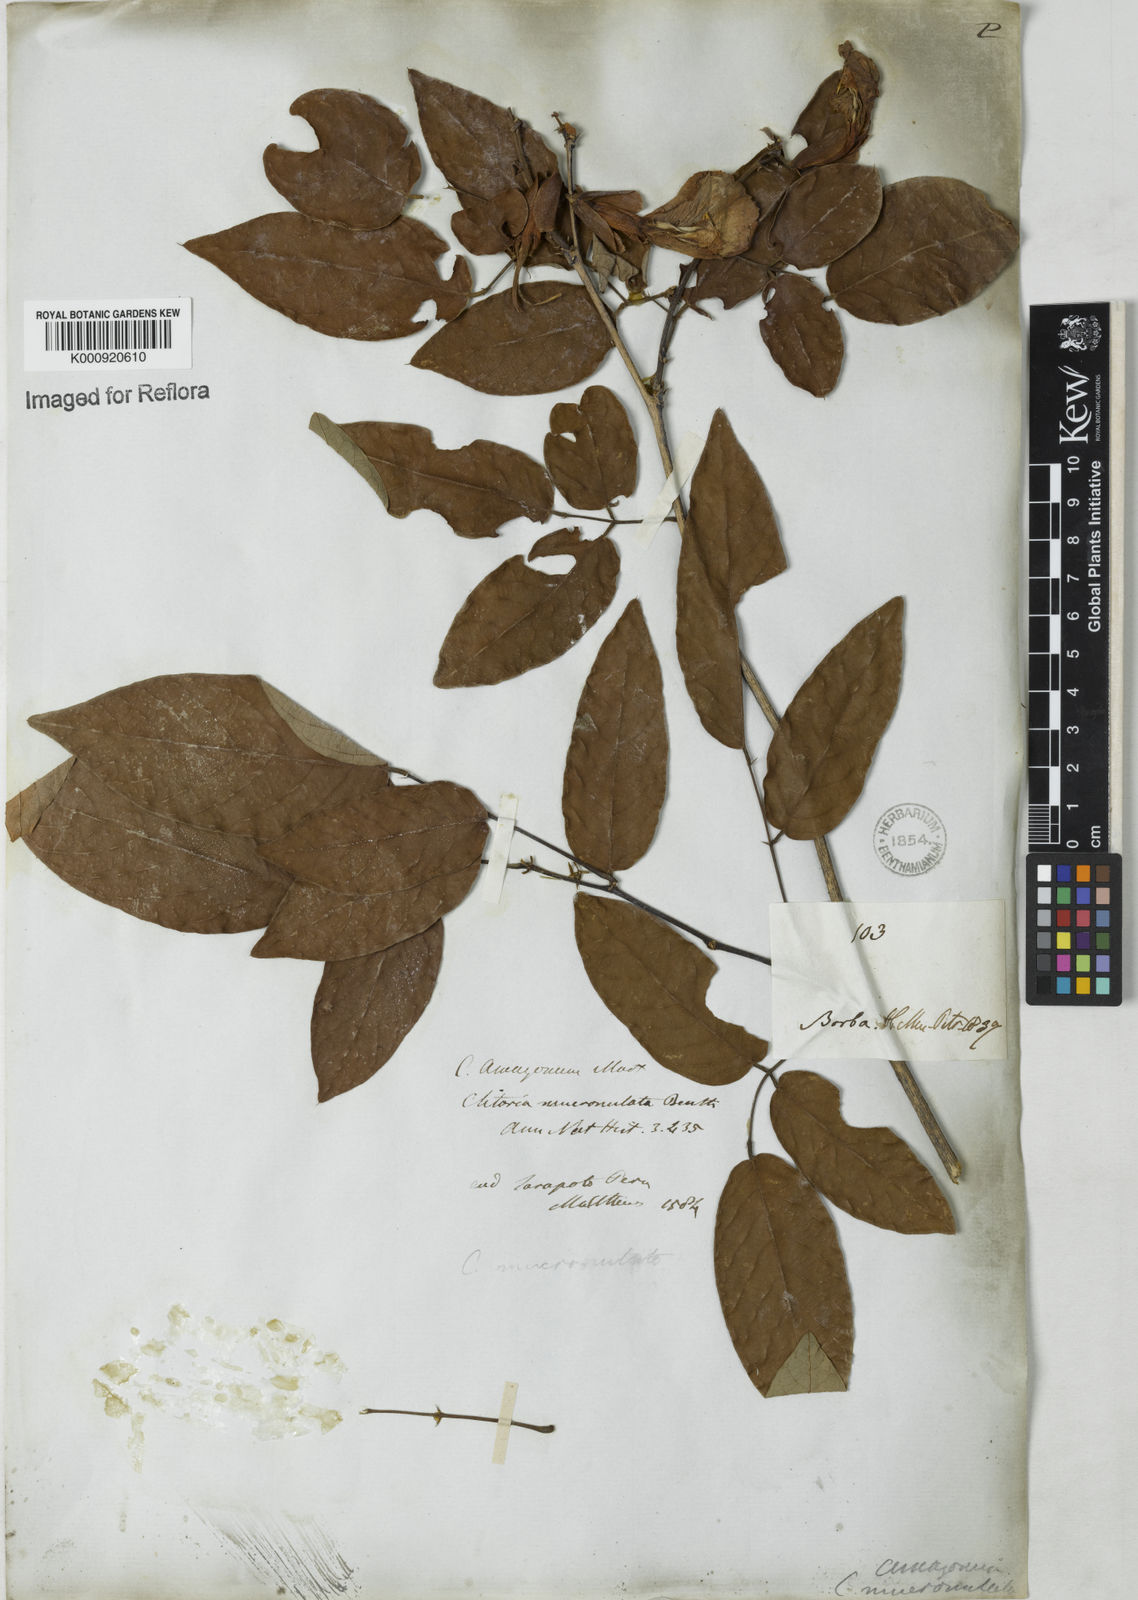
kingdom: Plantae
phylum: Tracheophyta
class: Magnoliopsida
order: Fabales
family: Fabaceae
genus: Clitoria
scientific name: Clitoria amazonum
